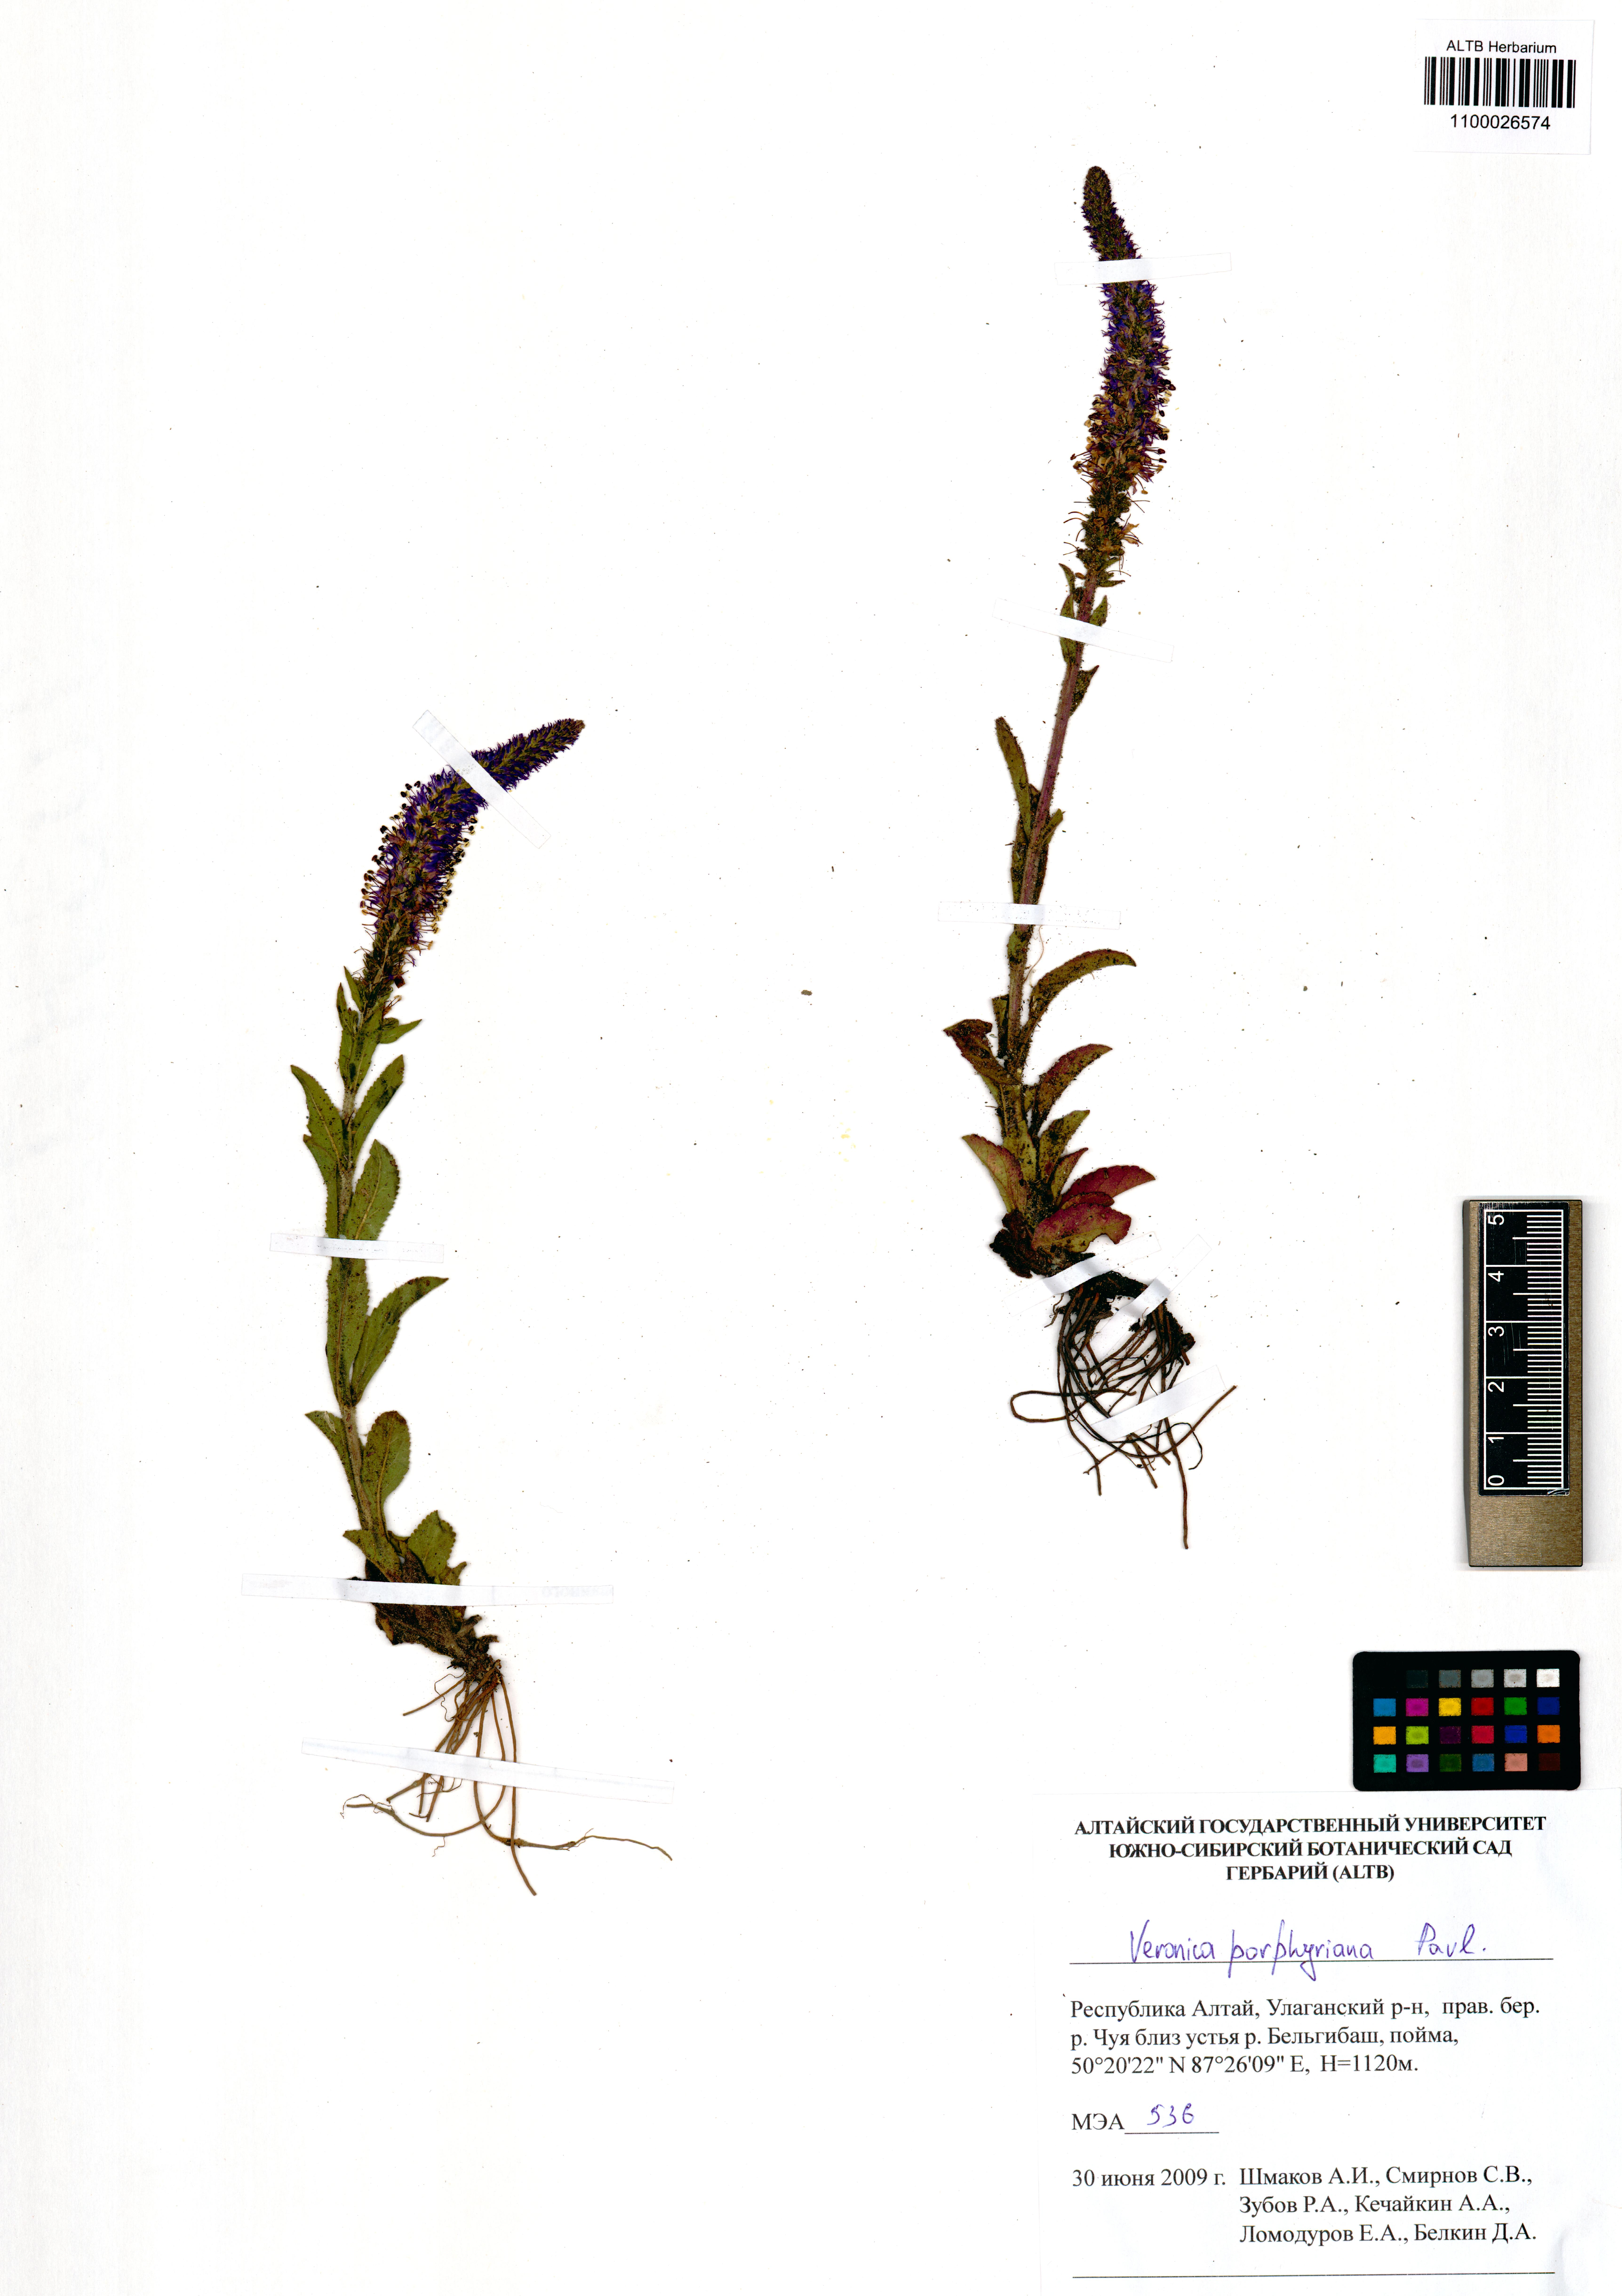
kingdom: Plantae
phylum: Tracheophyta
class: Magnoliopsida
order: Lamiales
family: Plantaginaceae
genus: Veronica
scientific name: Veronica porphyriana
